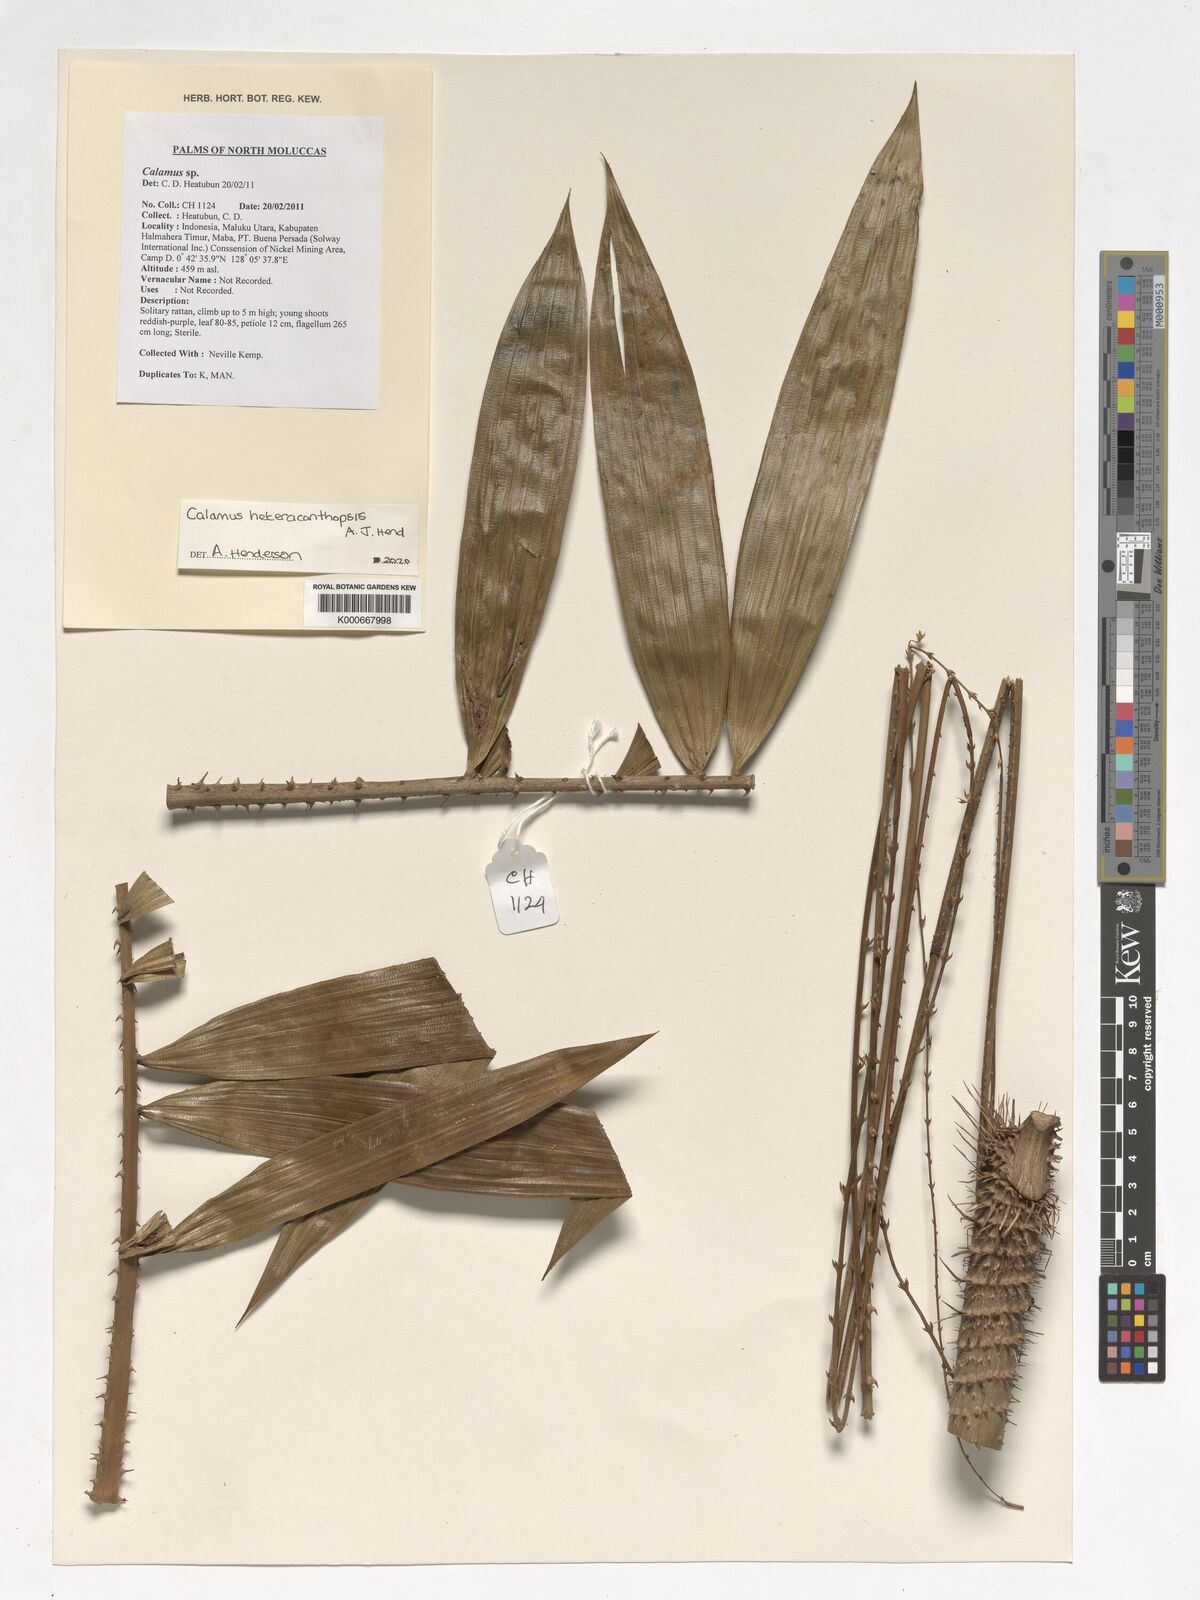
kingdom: Plantae
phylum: Tracheophyta
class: Liliopsida
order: Arecales
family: Arecaceae
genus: Calamus
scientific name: Calamus
